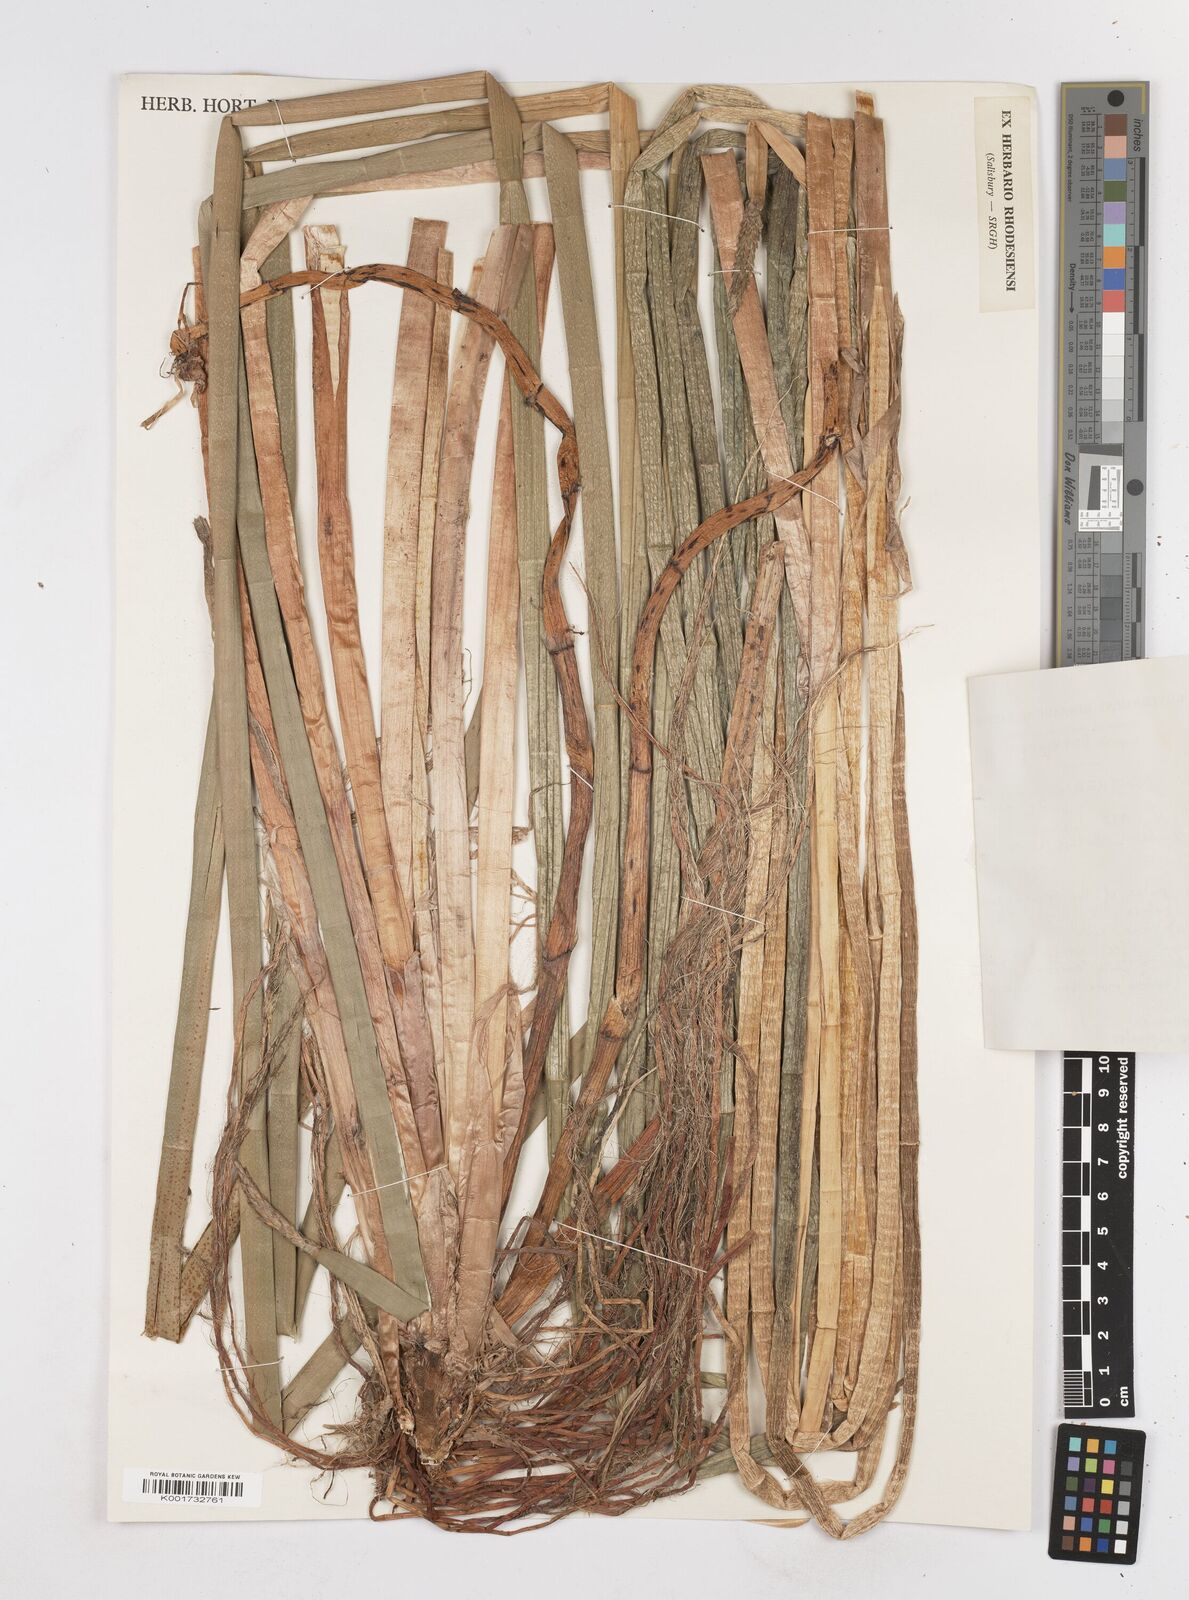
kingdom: Plantae
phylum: Tracheophyta
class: Liliopsida
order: Poales
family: Cyperaceae
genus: Eleocharis
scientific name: Eleocharis dulcis
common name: Chinese water chestnut
